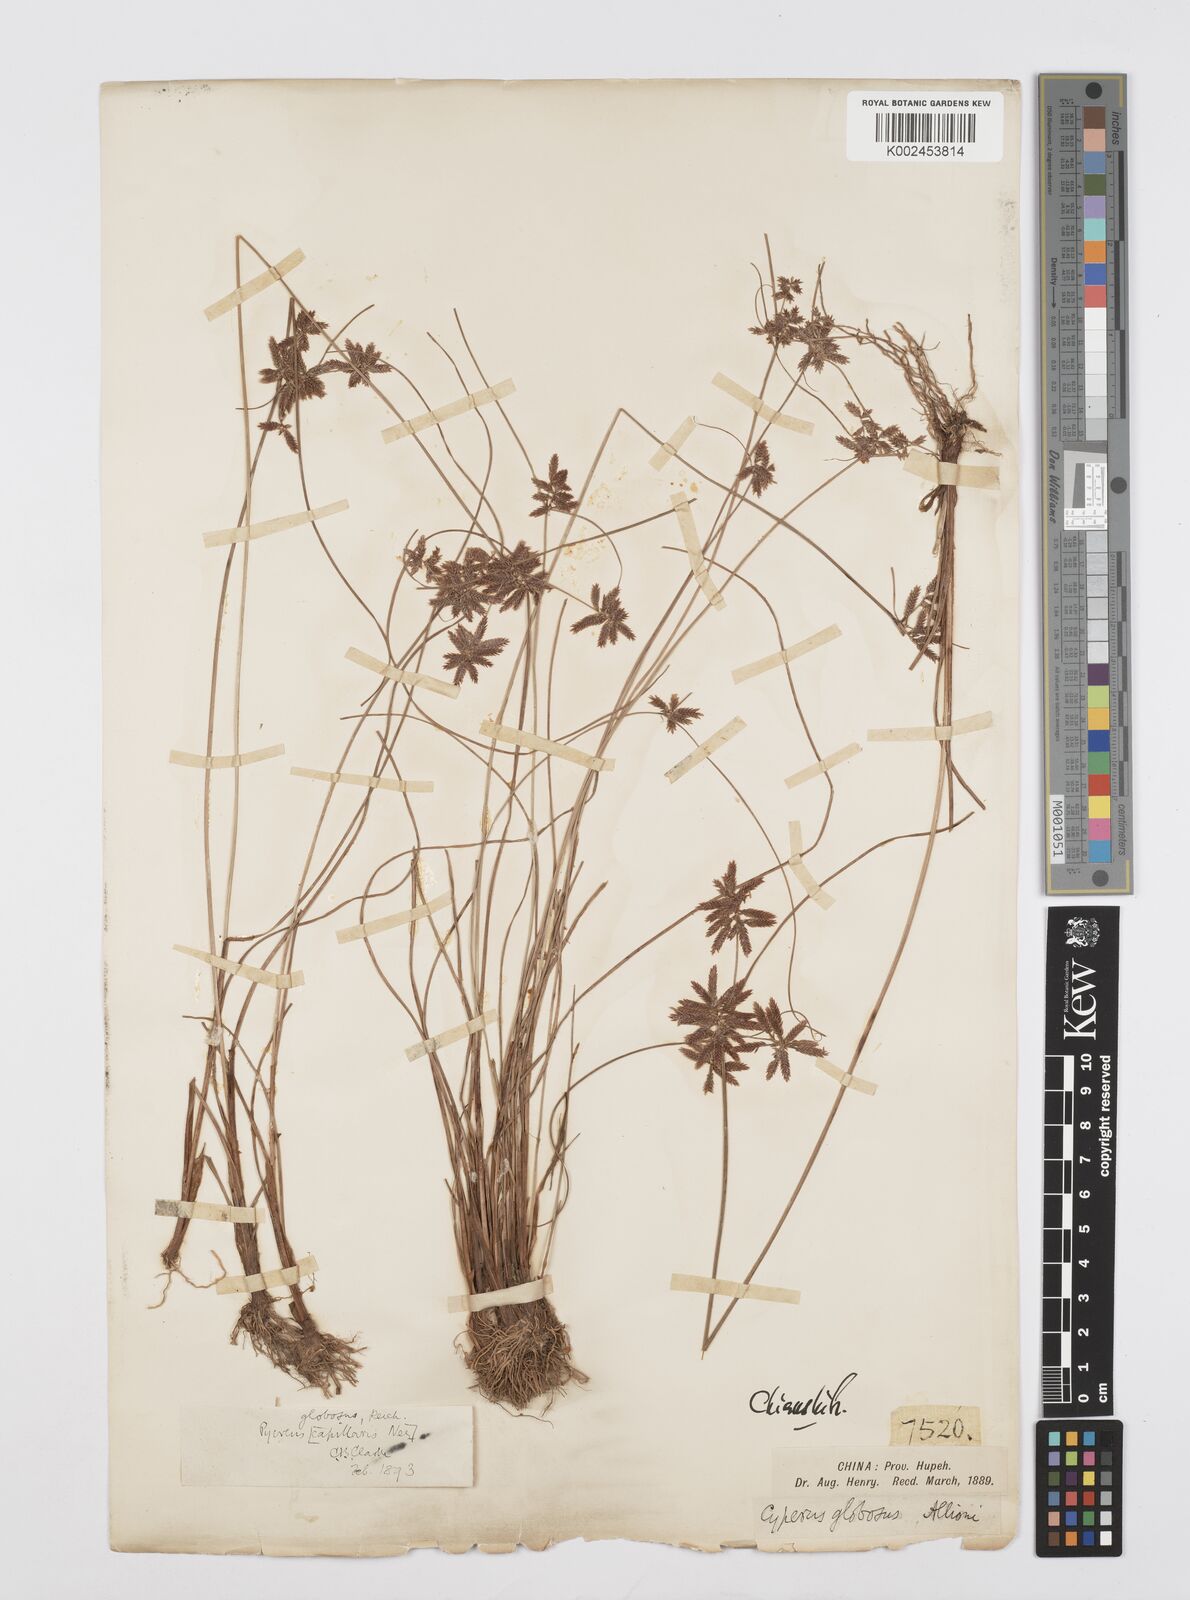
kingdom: Plantae
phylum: Tracheophyta
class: Liliopsida
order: Poales
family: Cyperaceae
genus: Cyperus
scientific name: Cyperus flavidus
